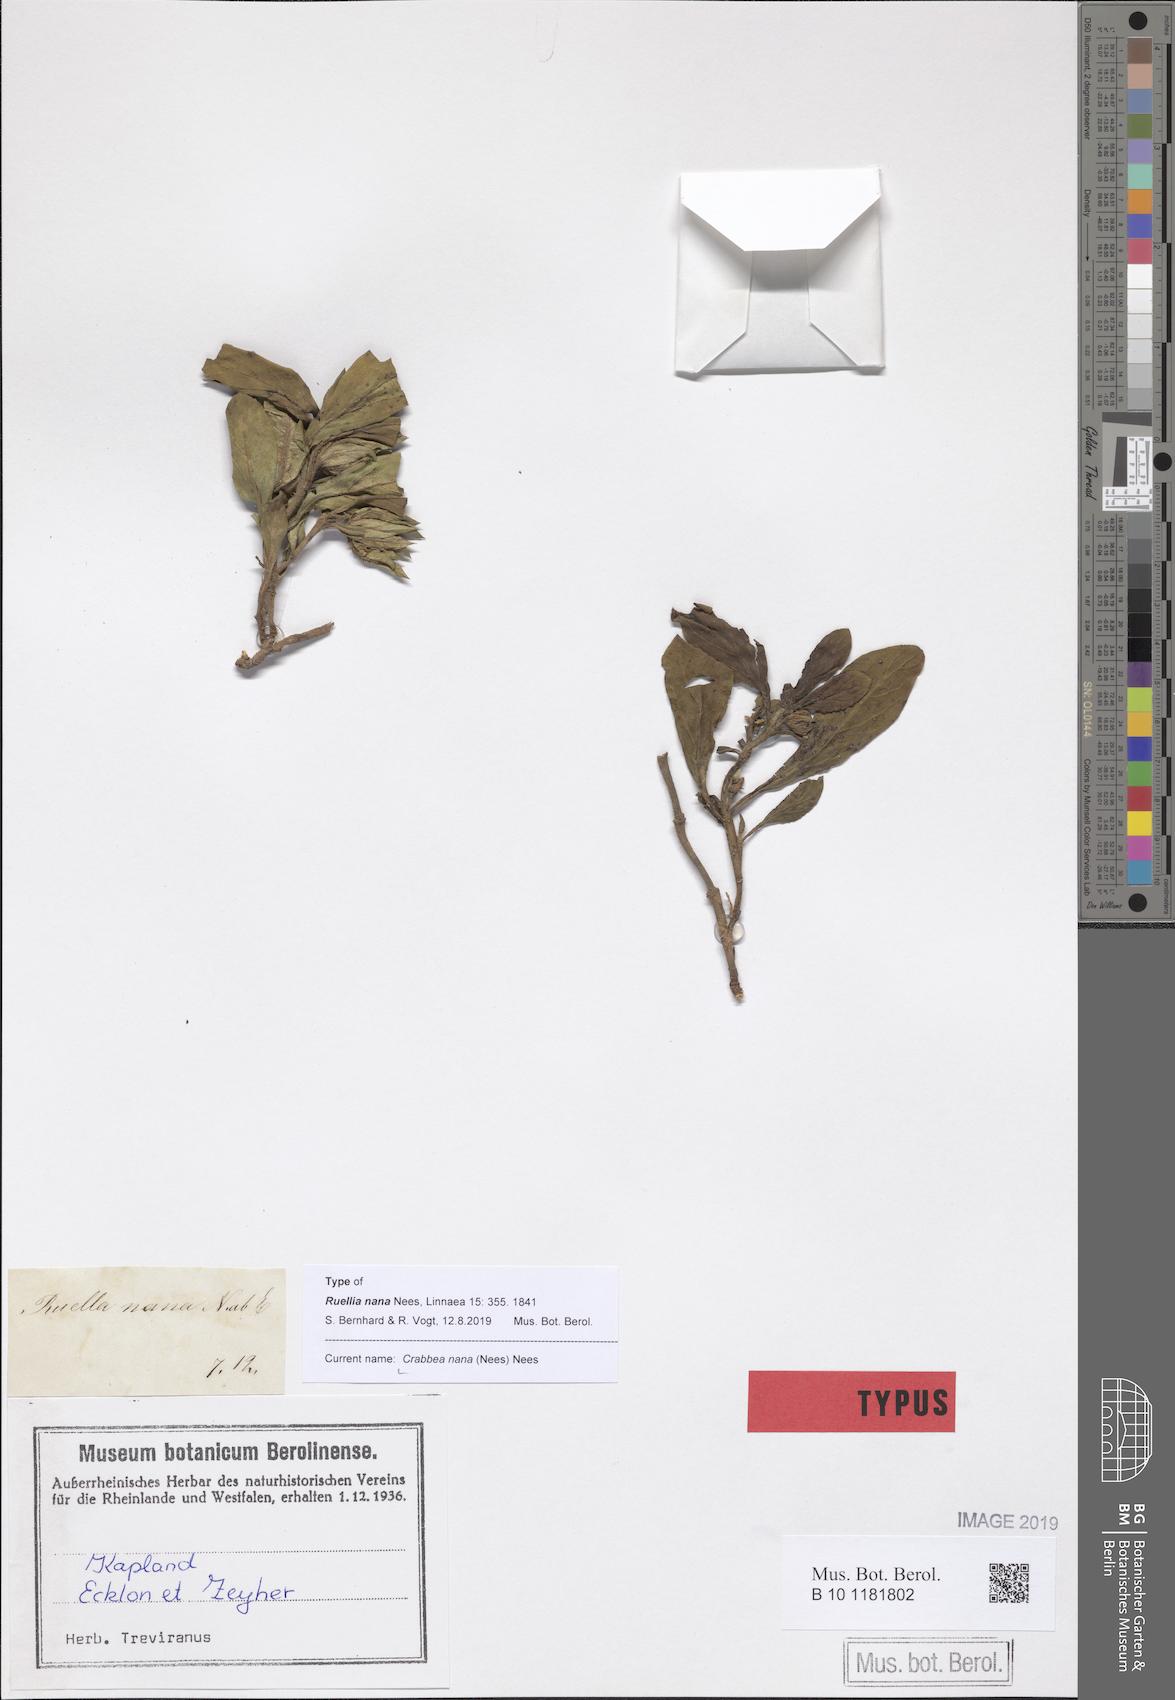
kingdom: Plantae
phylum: Tracheophyta
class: Magnoliopsida
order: Lamiales
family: Acanthaceae
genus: Crabbea
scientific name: Crabbea nana
